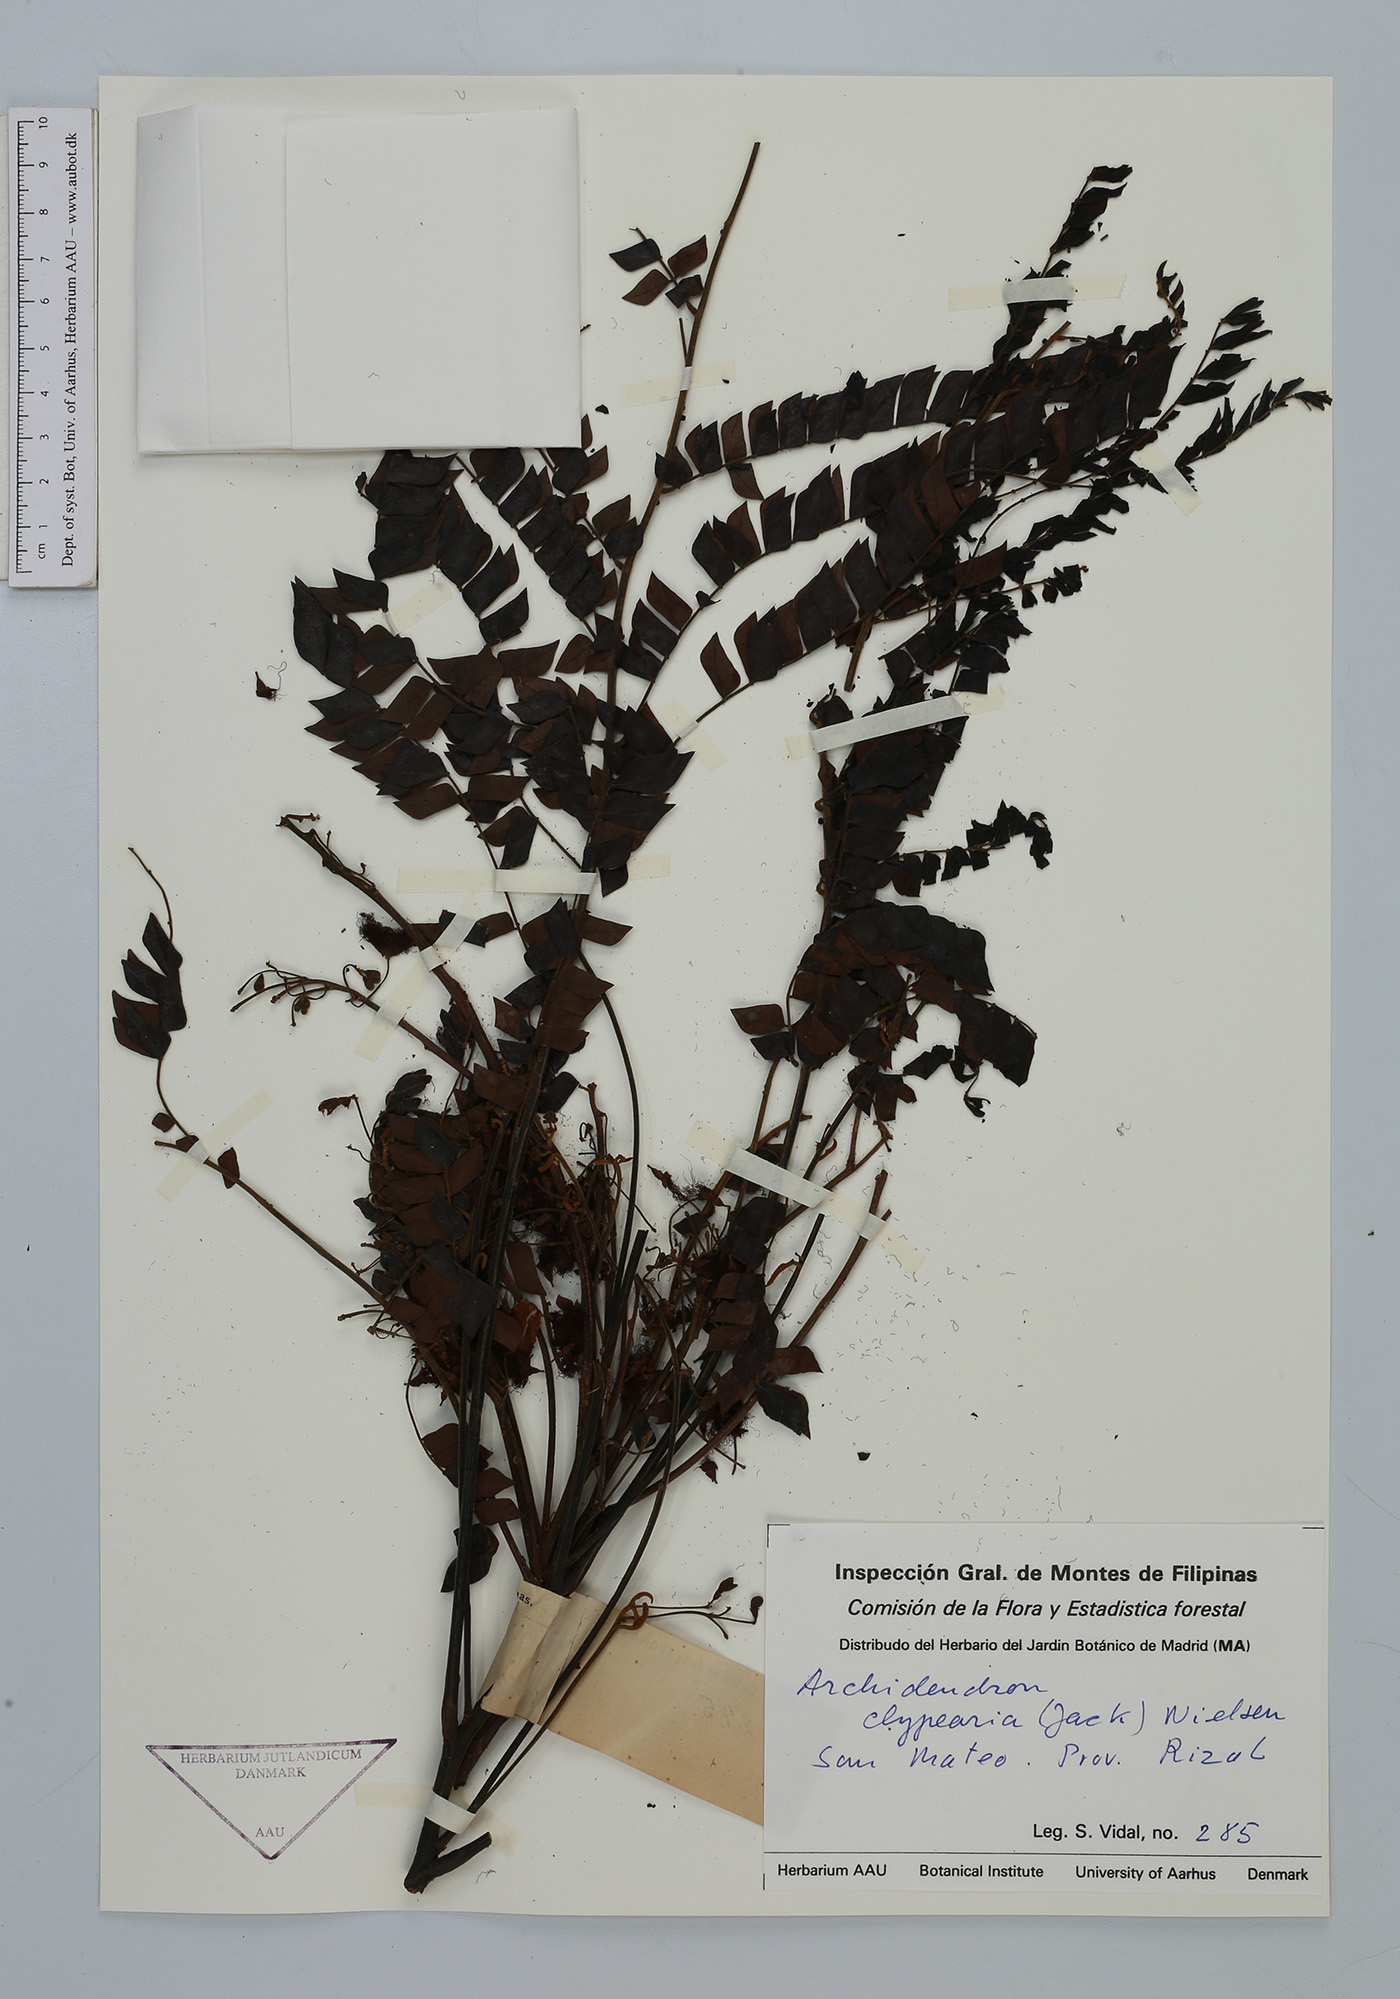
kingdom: Plantae
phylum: Tracheophyta
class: Magnoliopsida
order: Fabales
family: Fabaceae
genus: Archidendron
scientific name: Archidendron clypearia
